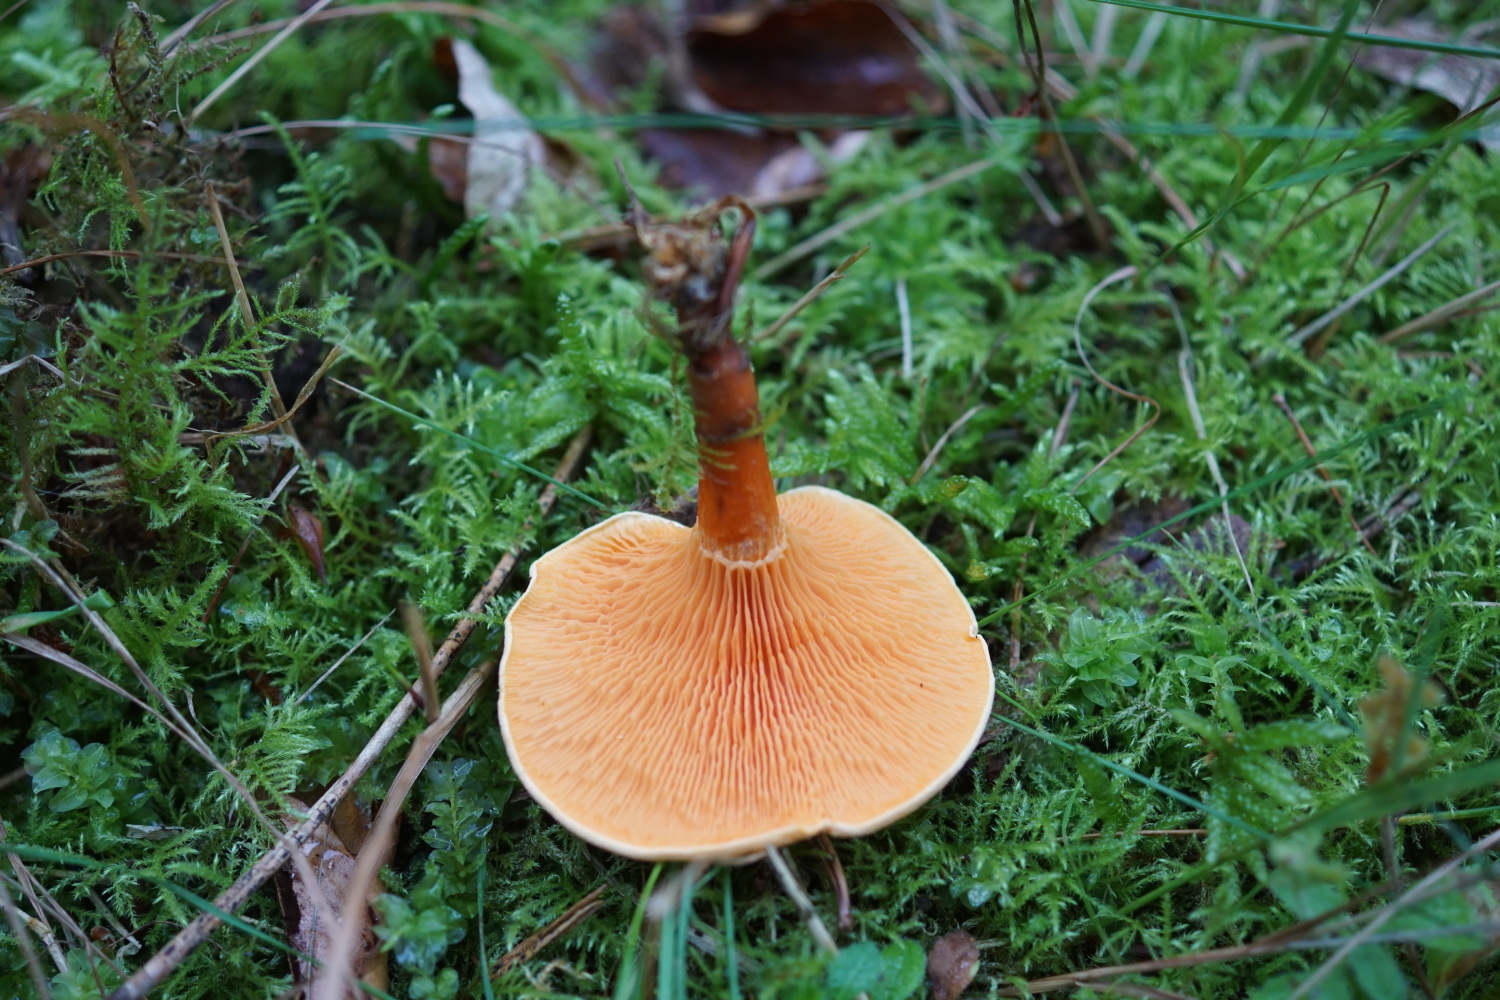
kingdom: Fungi
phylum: Basidiomycota
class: Agaricomycetes
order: Boletales
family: Hygrophoropsidaceae
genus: Hygrophoropsis
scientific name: Hygrophoropsis aurantiaca
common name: almindelig orangekantarel
